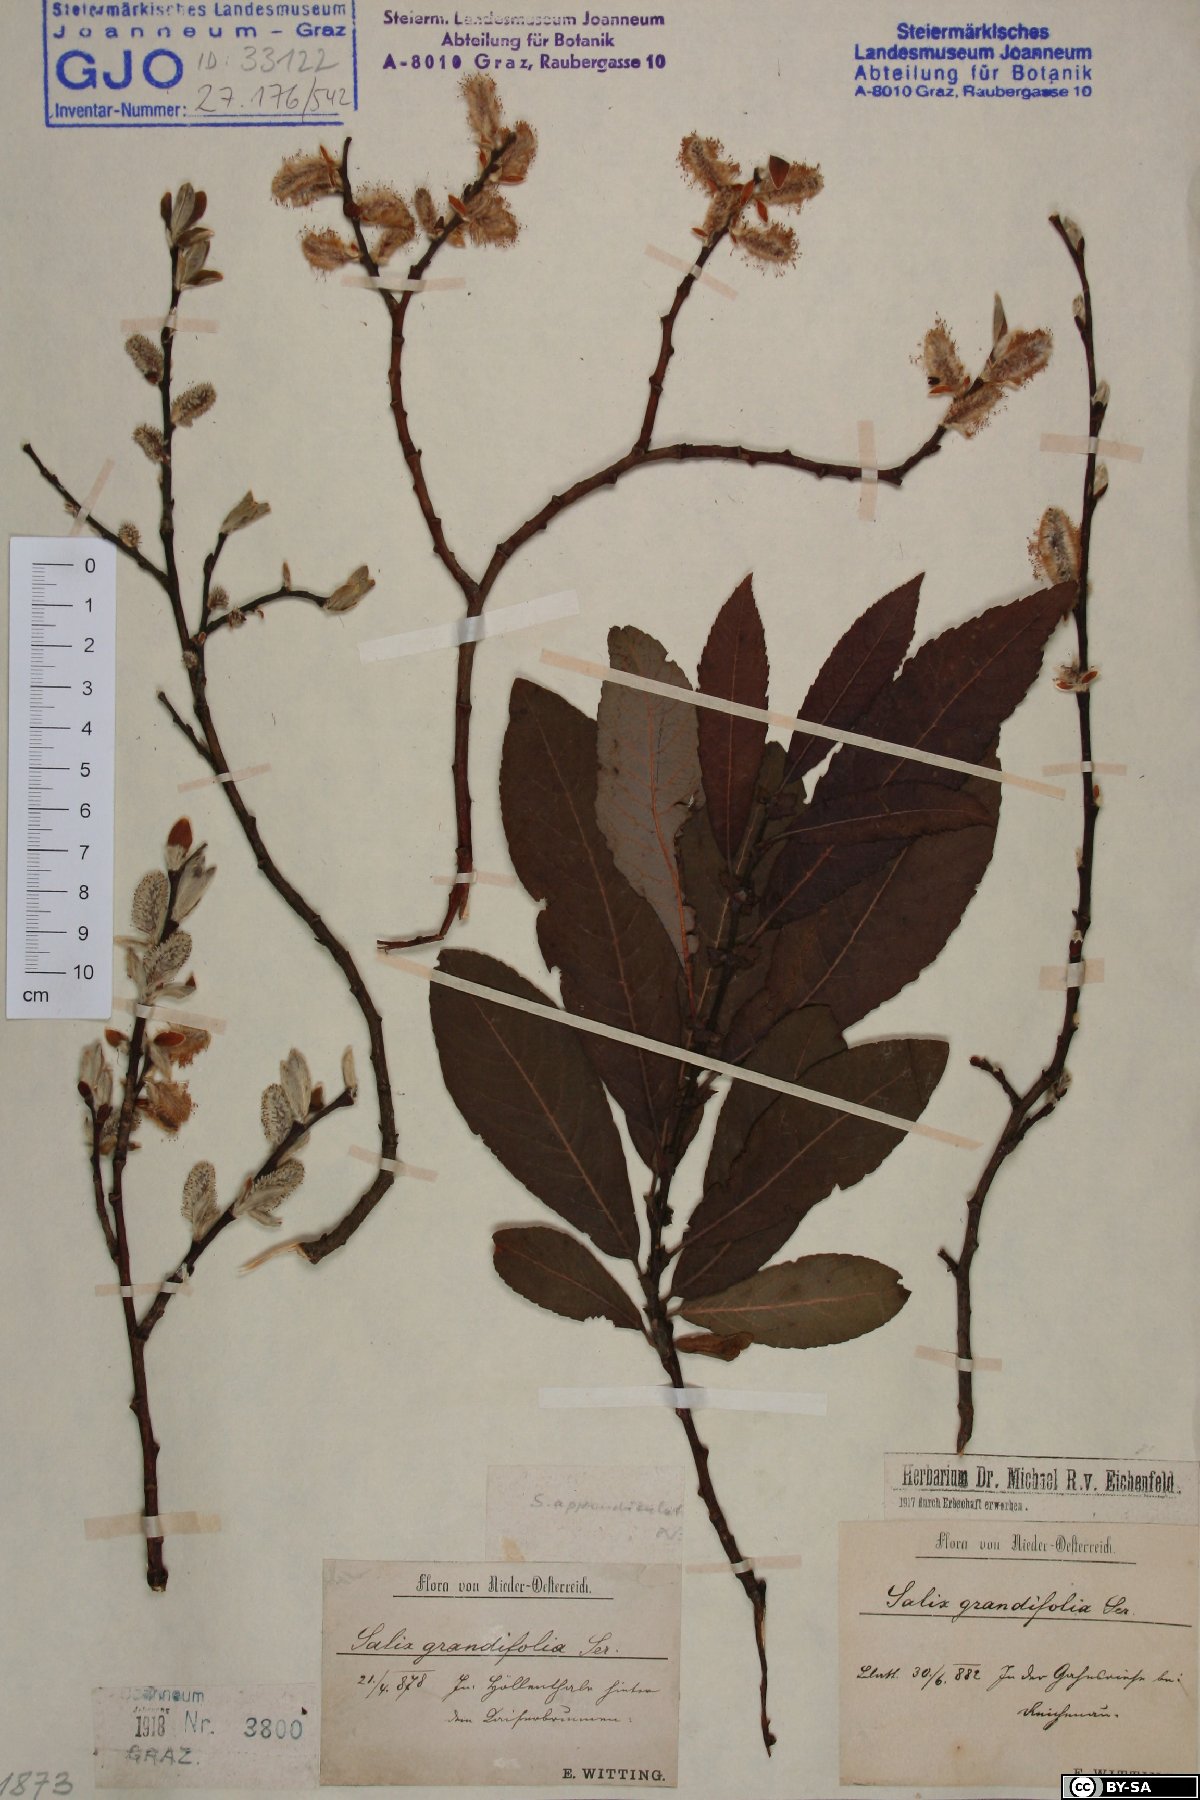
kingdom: Plantae
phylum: Tracheophyta
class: Magnoliopsida
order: Malpighiales
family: Salicaceae
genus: Salix
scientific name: Salix appendiculata
